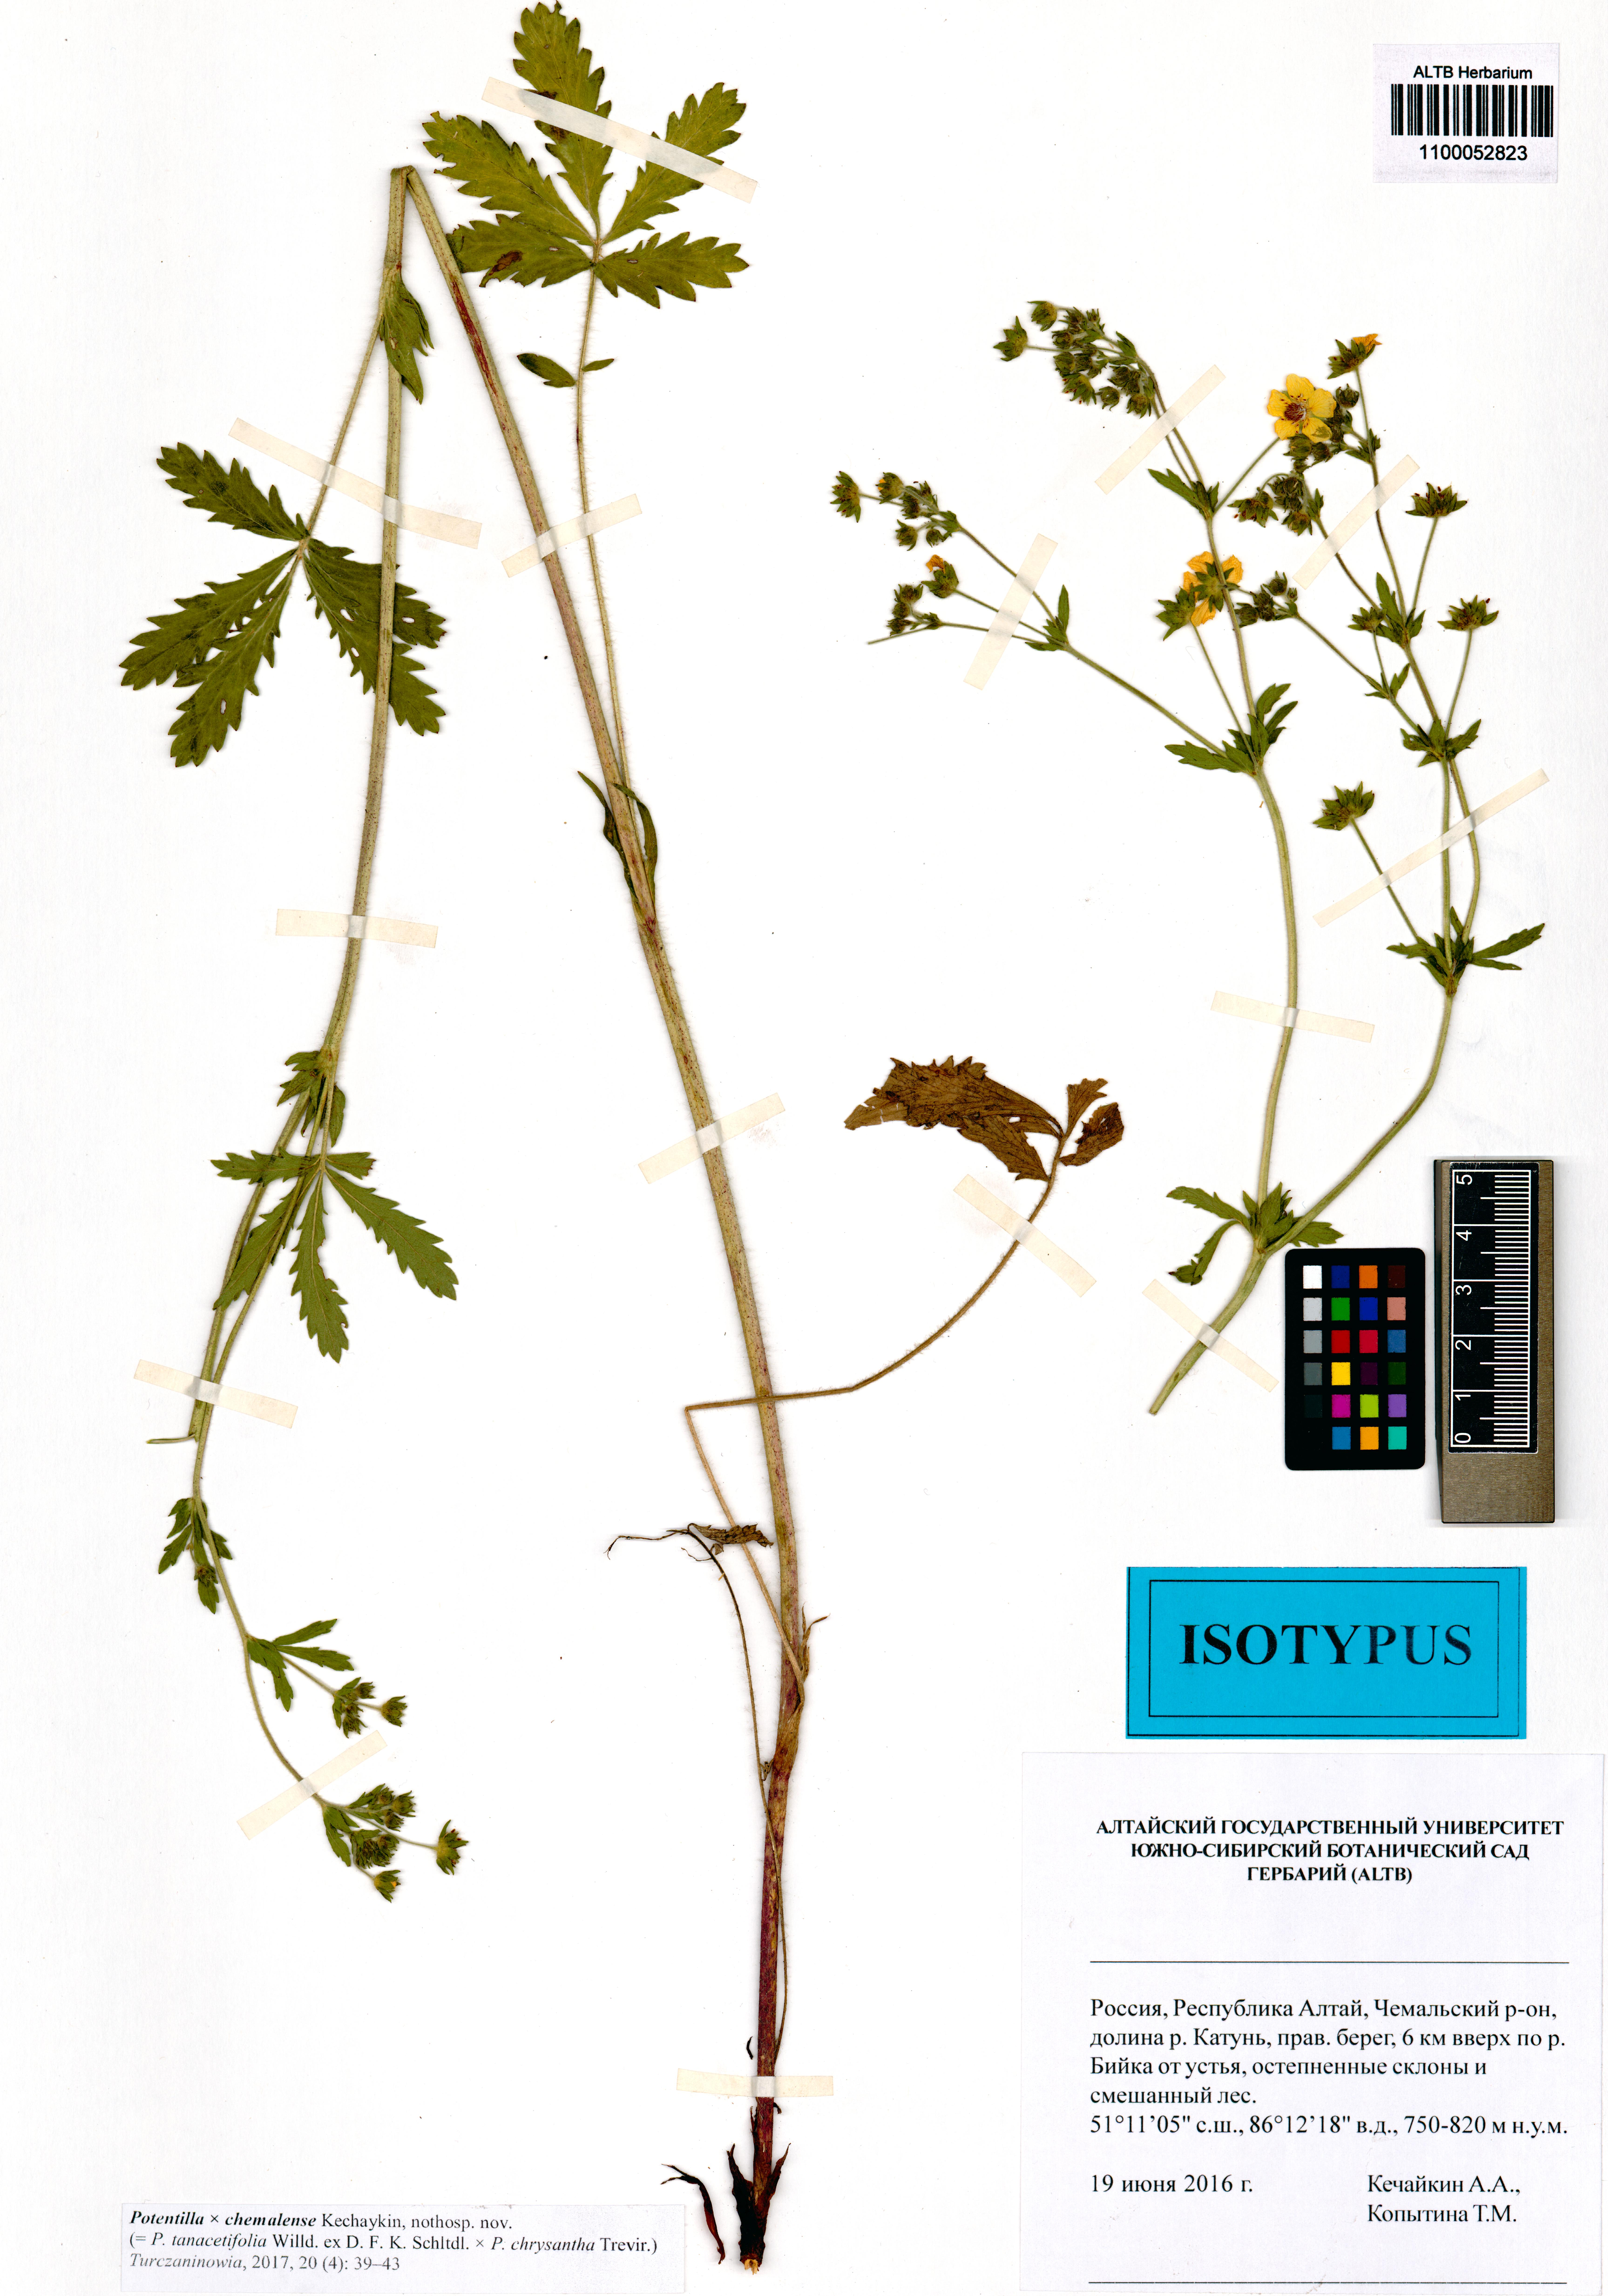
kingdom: Plantae
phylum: Tracheophyta
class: Magnoliopsida
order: Rosales
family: Rosaceae
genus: Potentilla
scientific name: Potentilla chemalensis
